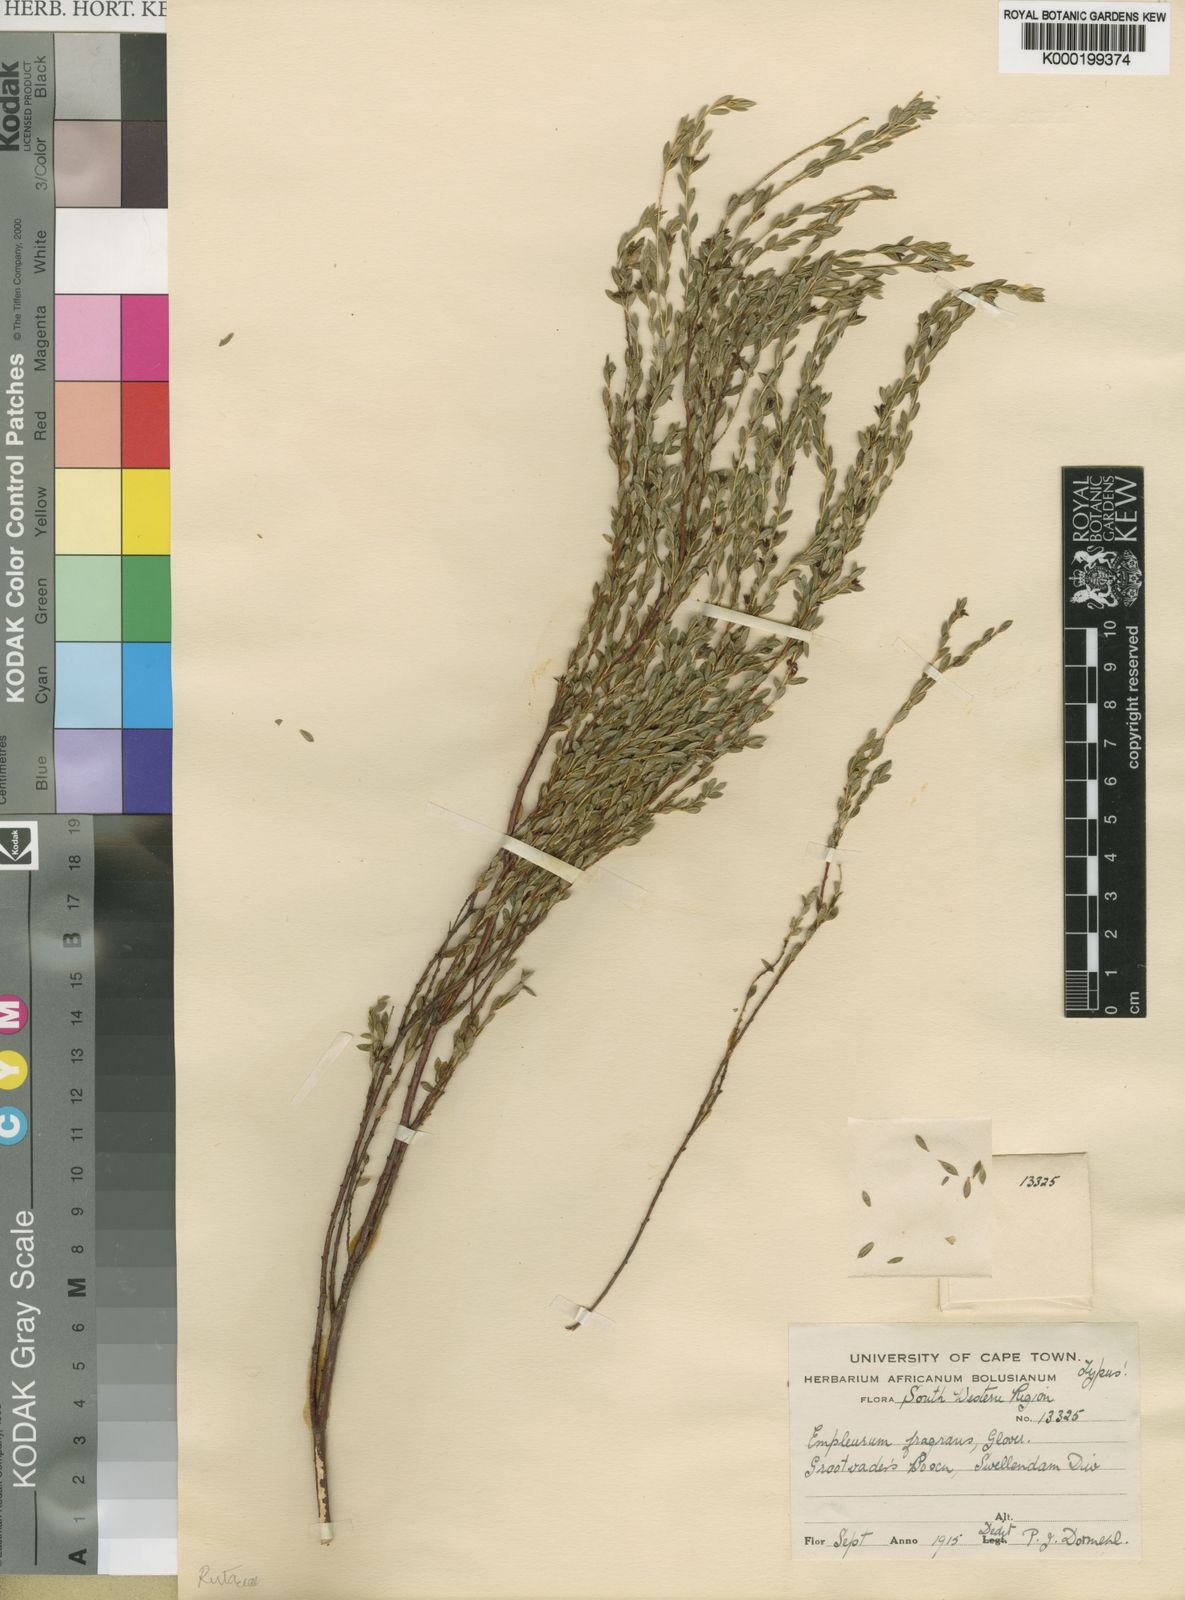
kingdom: Plantae
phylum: Tracheophyta
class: Magnoliopsida
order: Sapindales
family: Rutaceae
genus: Empleurum
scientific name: Empleurum fragrans
